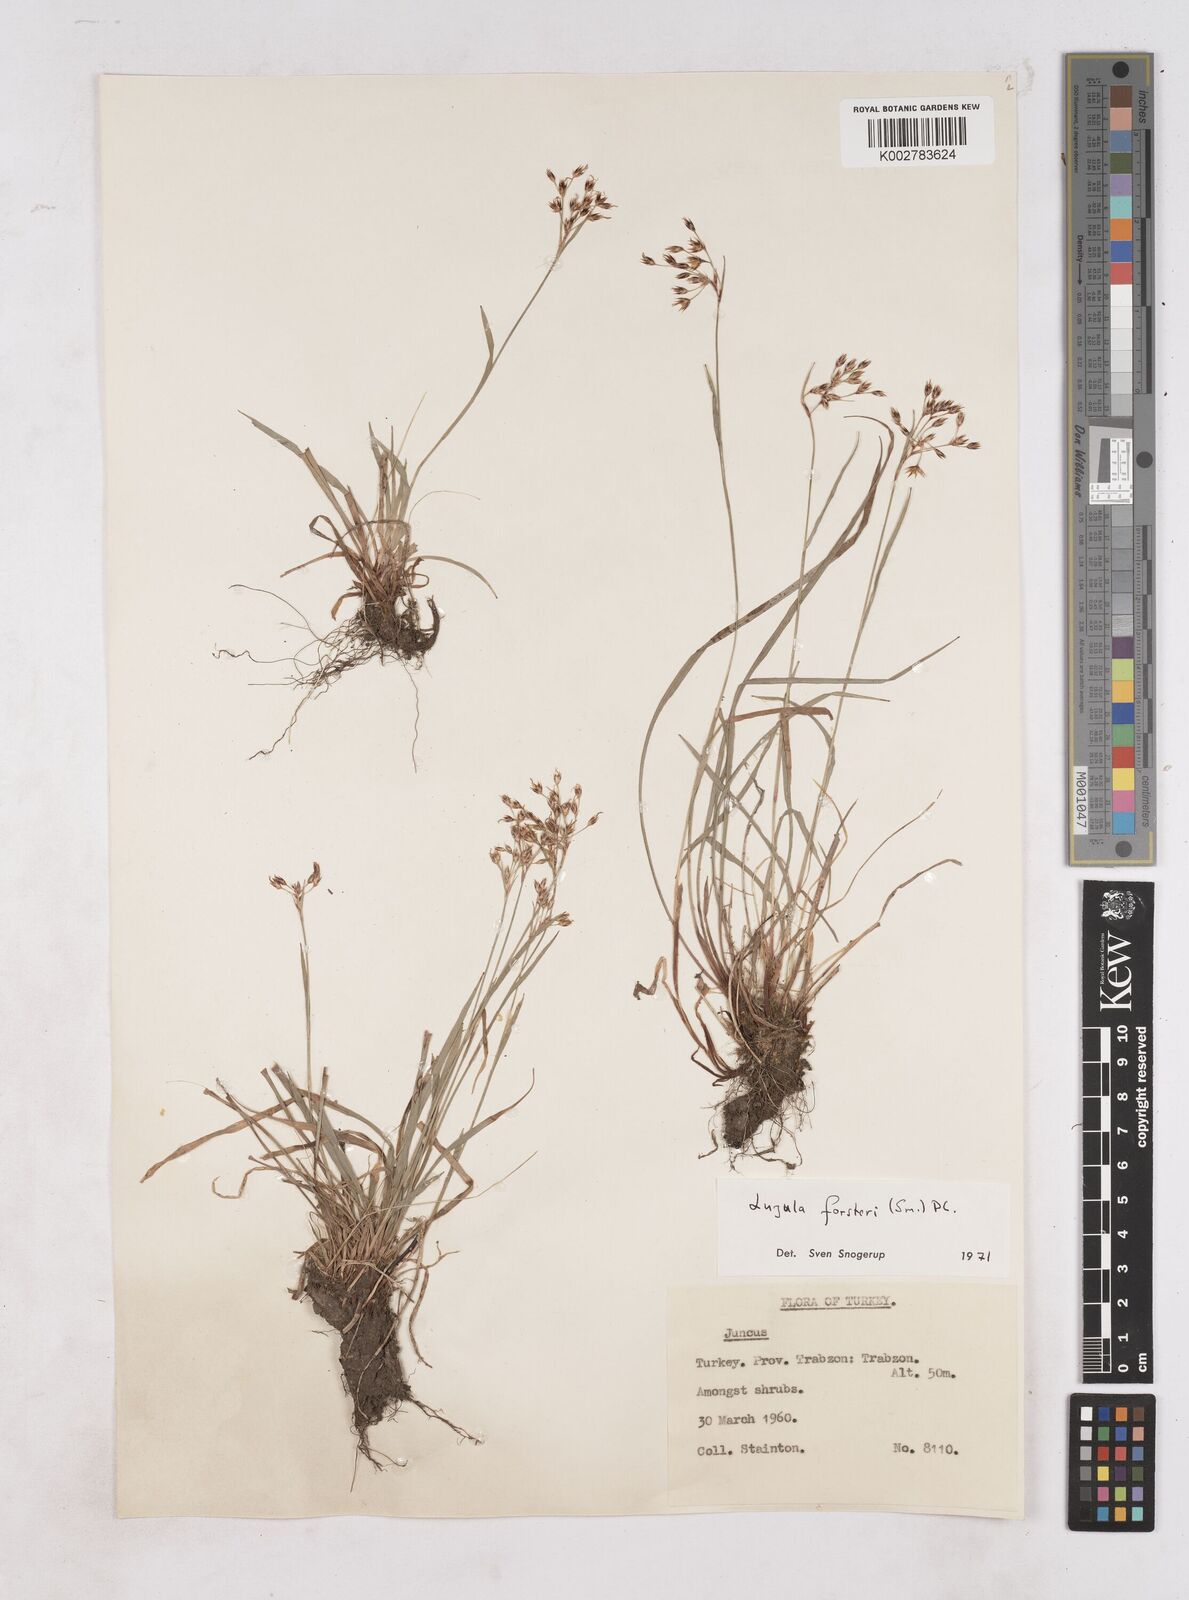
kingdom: Plantae
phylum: Tracheophyta
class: Liliopsida
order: Poales
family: Juncaceae
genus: Luzula
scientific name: Luzula forsteri
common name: Southern wood-rush
